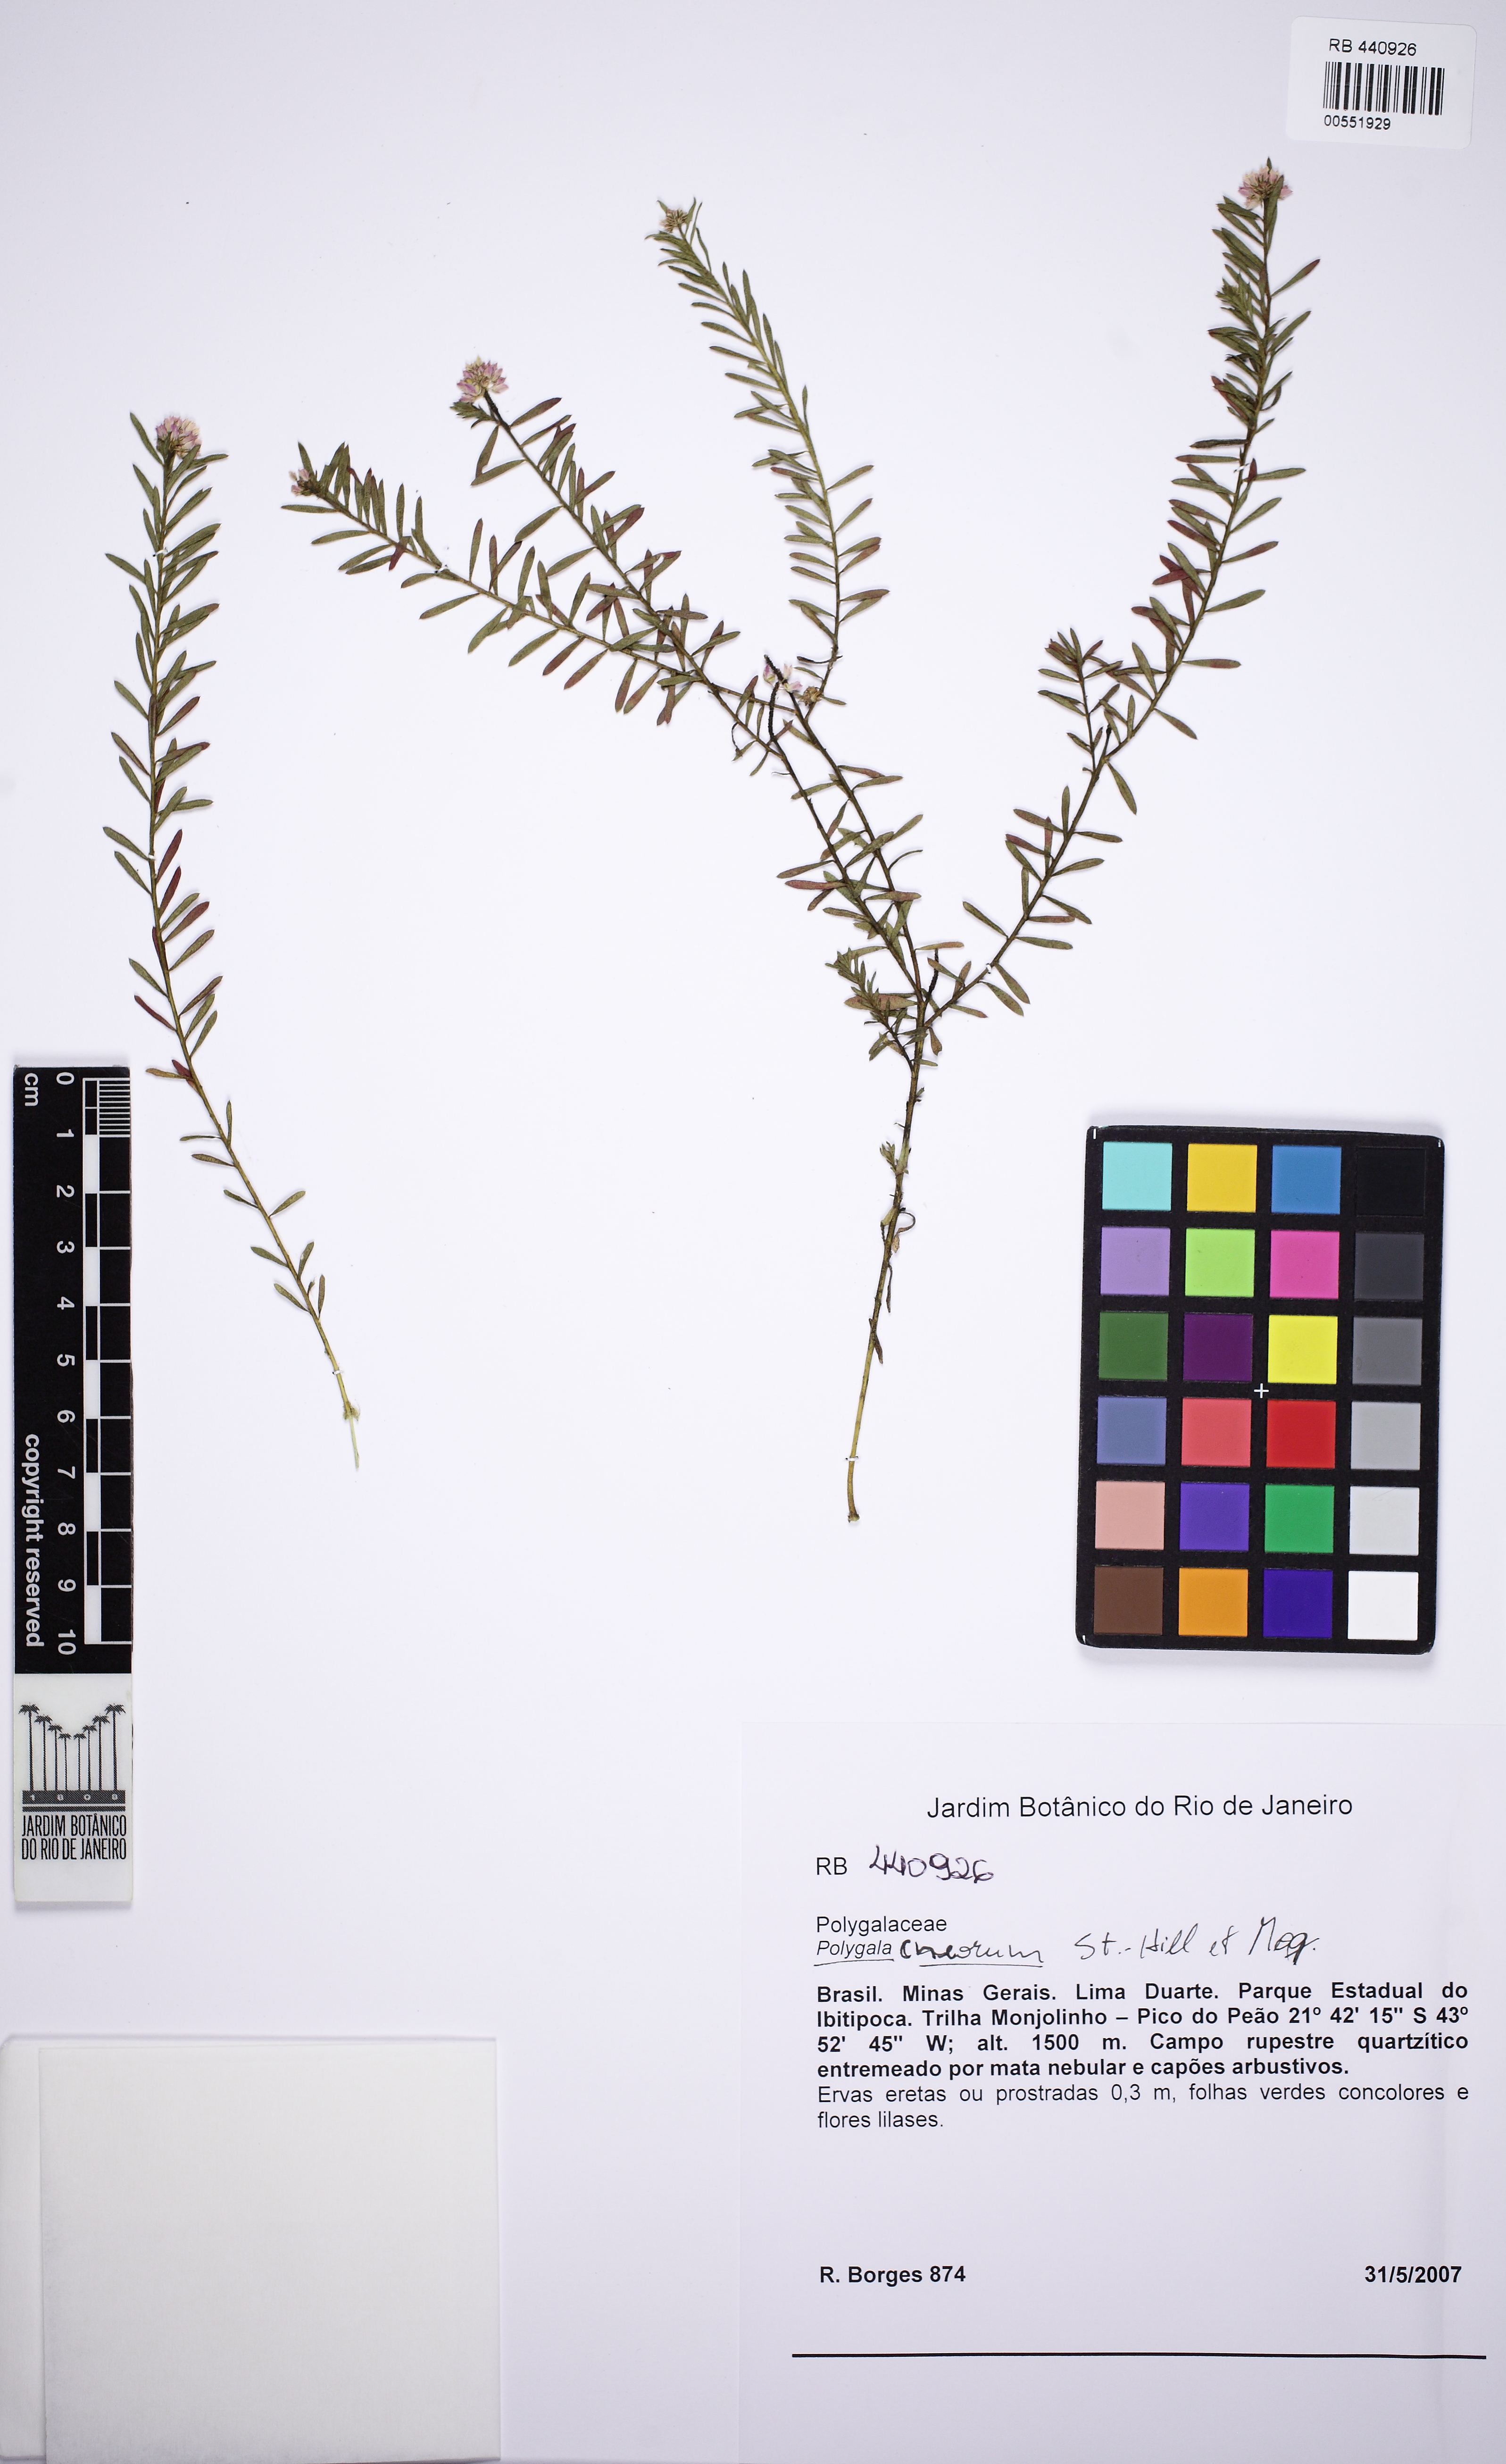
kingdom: Plantae
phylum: Tracheophyta
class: Magnoliopsida
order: Fabales
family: Polygalaceae
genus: Polygala
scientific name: Polygala cneorum
